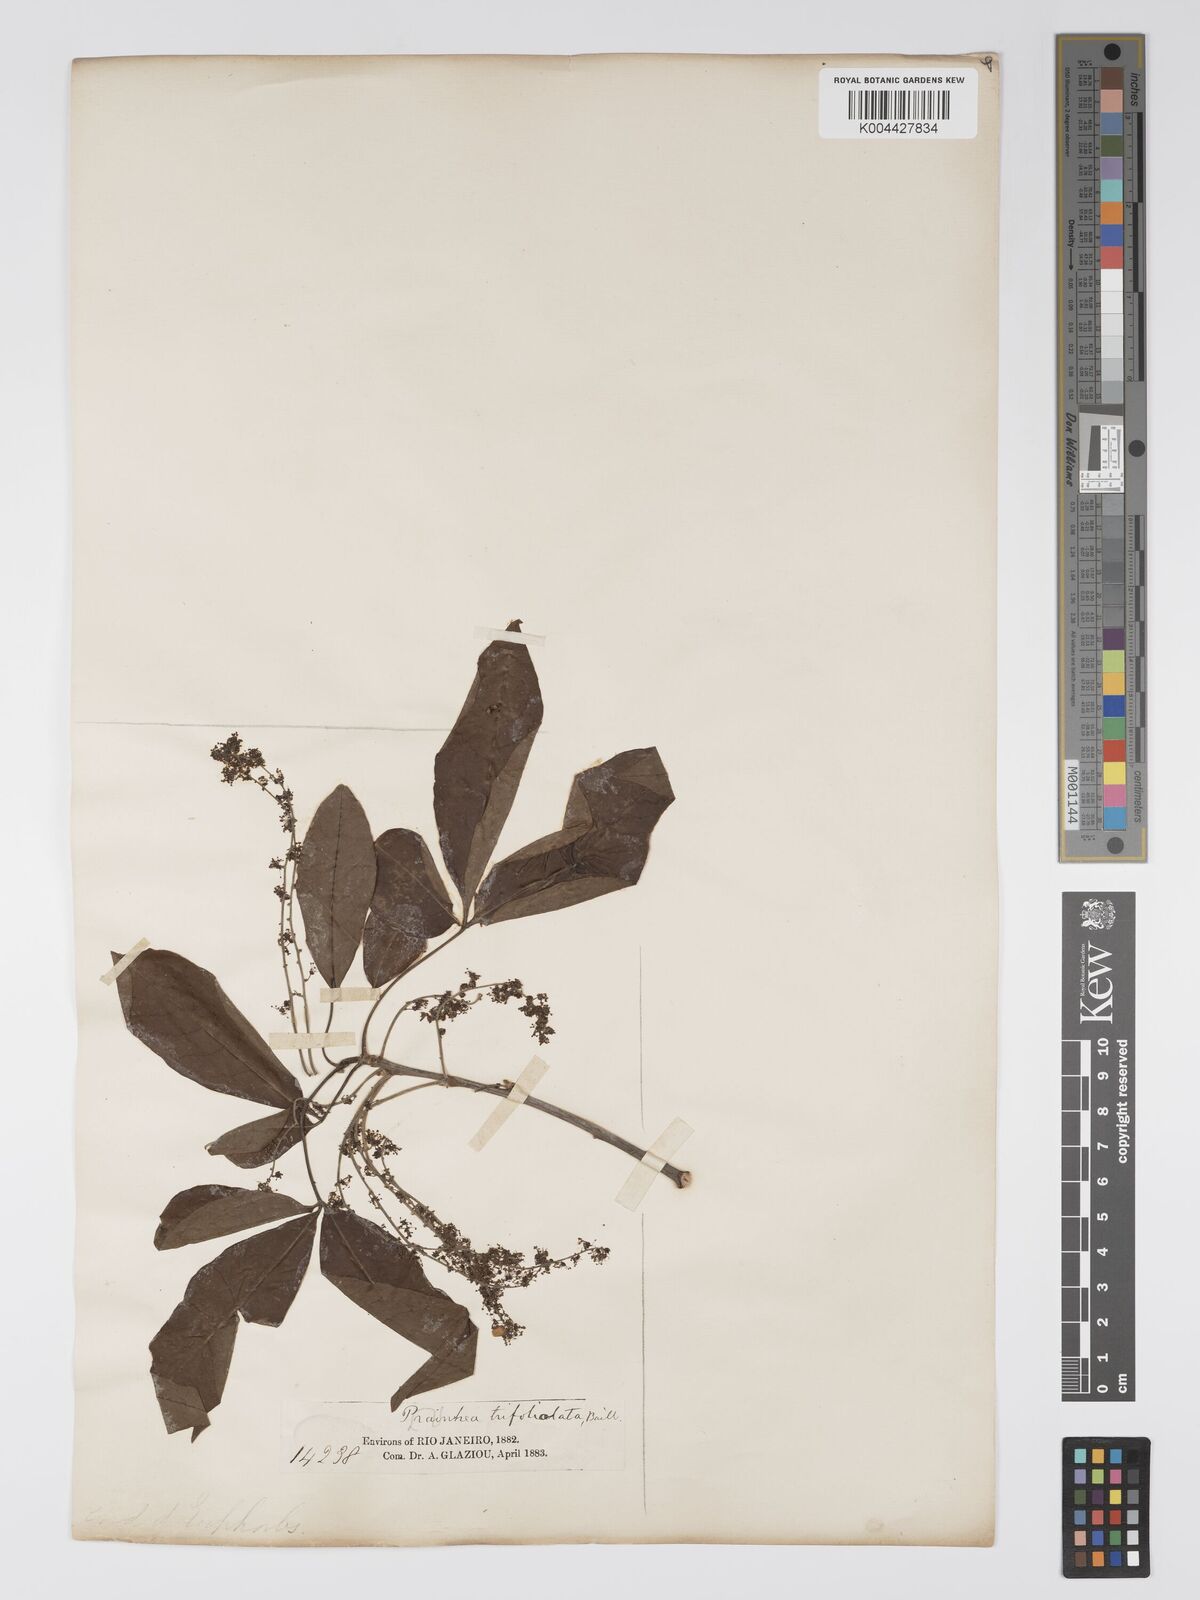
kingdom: Plantae
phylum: Tracheophyta
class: Magnoliopsida
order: Malpighiales
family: Picrodendraceae
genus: Piranhea
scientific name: Piranhea trifoliolata
